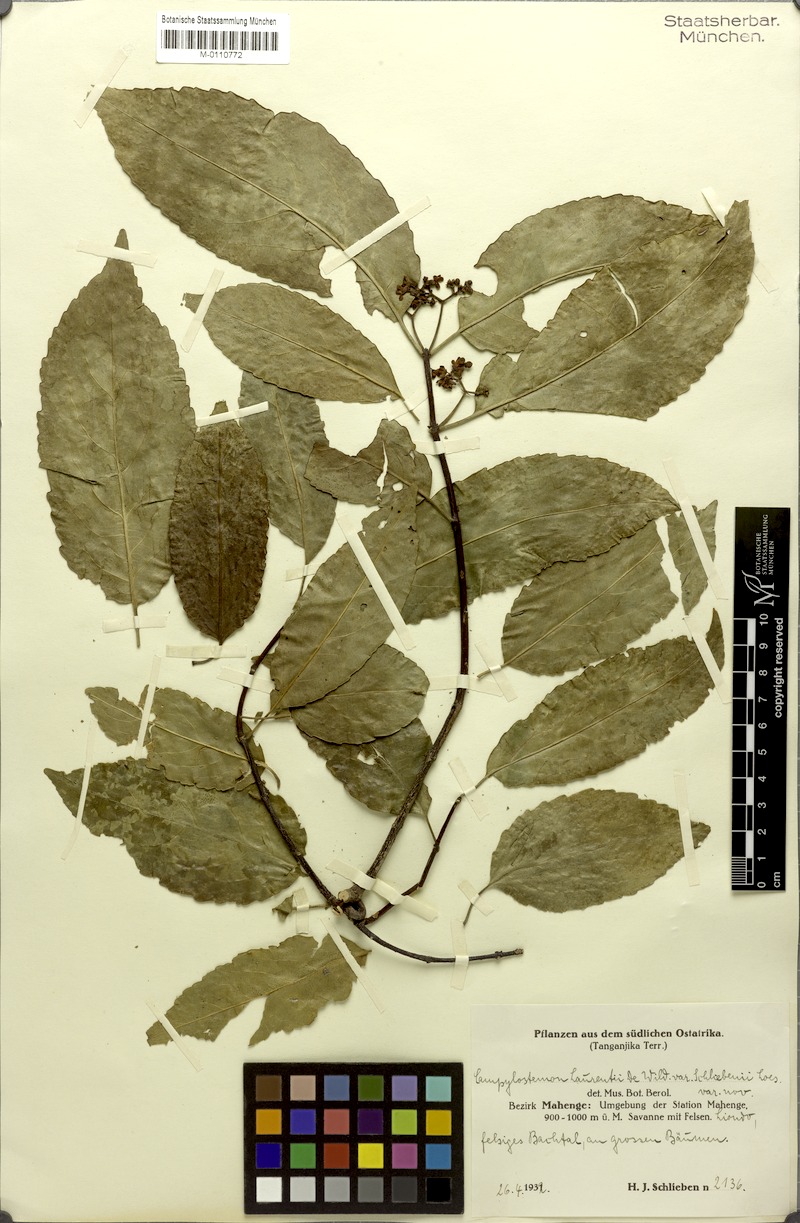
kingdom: Plantae
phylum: Tracheophyta
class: Magnoliopsida
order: Celastrales
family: Celastraceae
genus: Campylostemon
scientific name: Campylostemon laurentii
